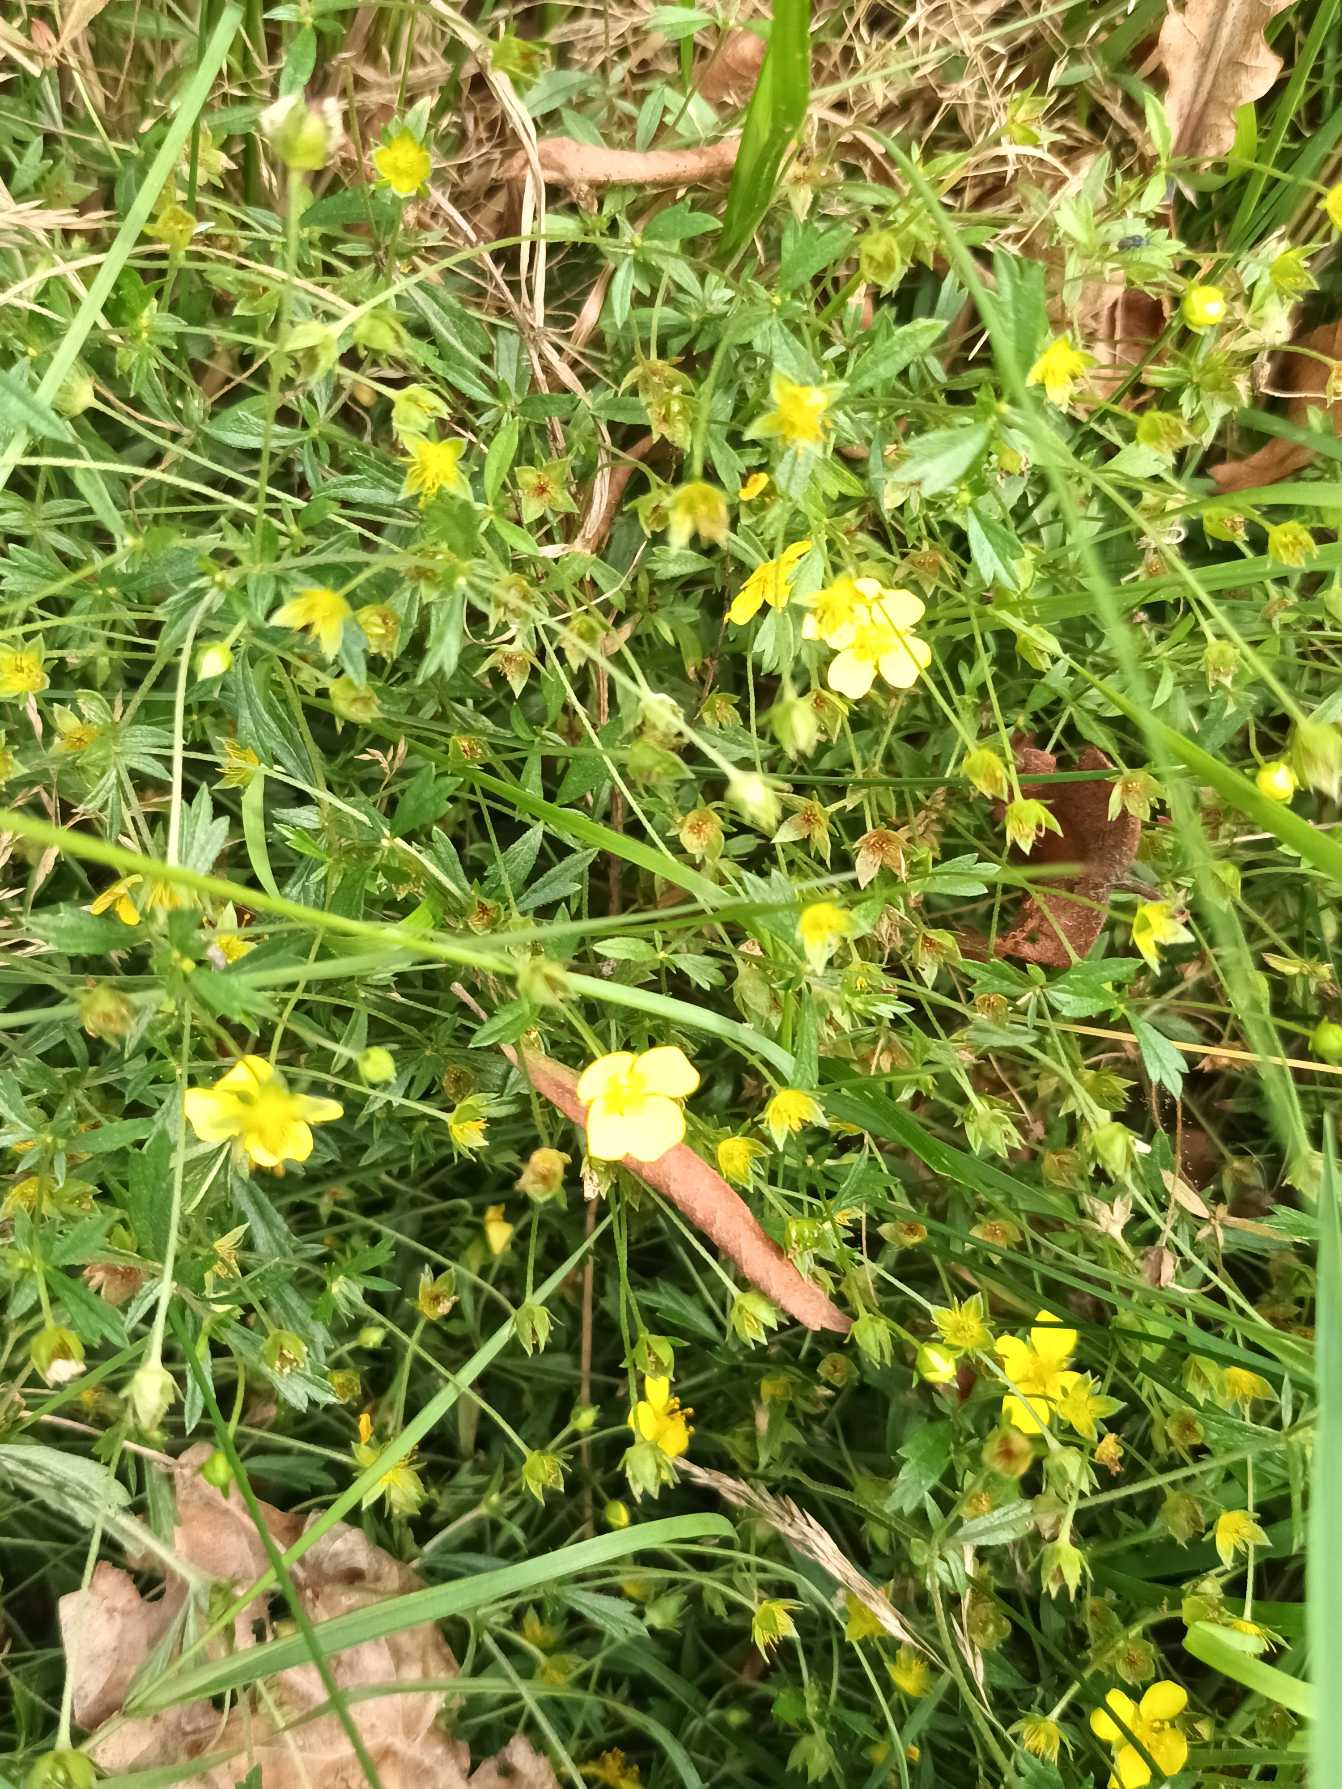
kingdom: Plantae
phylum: Tracheophyta
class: Magnoliopsida
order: Rosales
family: Rosaceae
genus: Potentilla
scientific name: Potentilla erecta
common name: Tormentil
